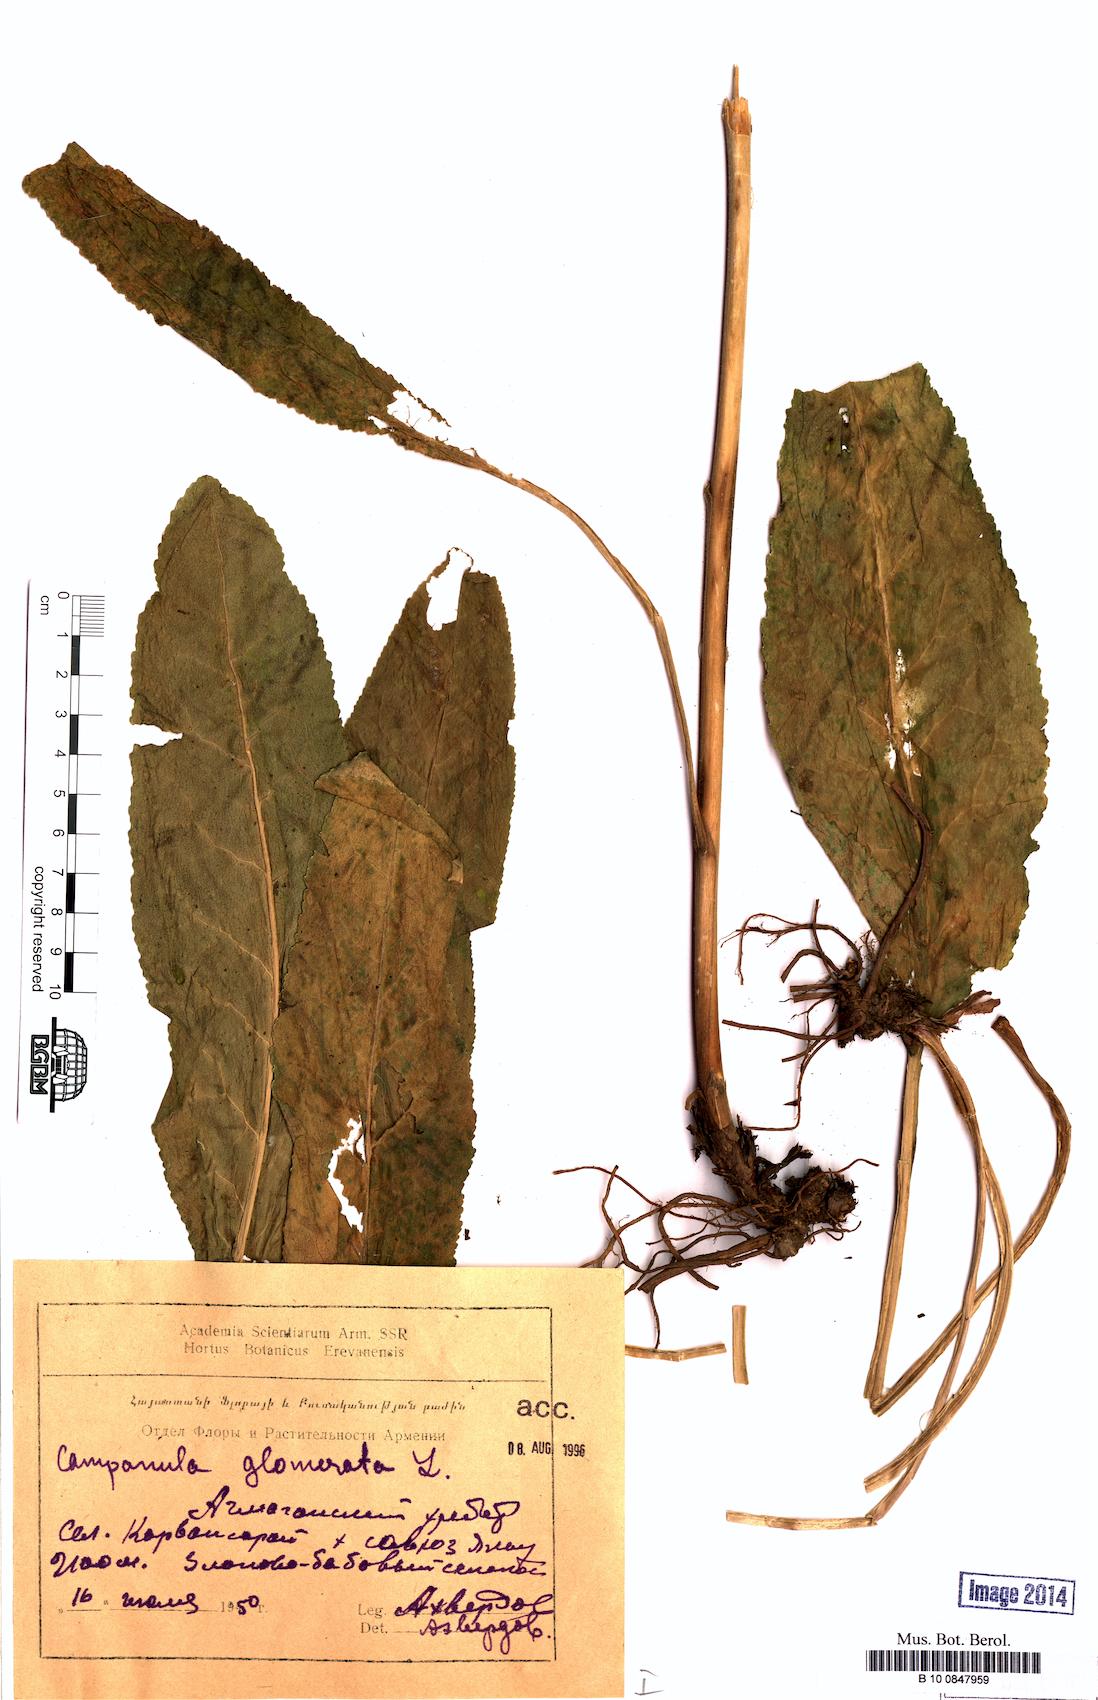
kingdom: Plantae
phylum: Tracheophyta
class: Magnoliopsida
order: Asterales
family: Campanulaceae
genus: Campanula
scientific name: Campanula glomerata
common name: Clustered bellflower
